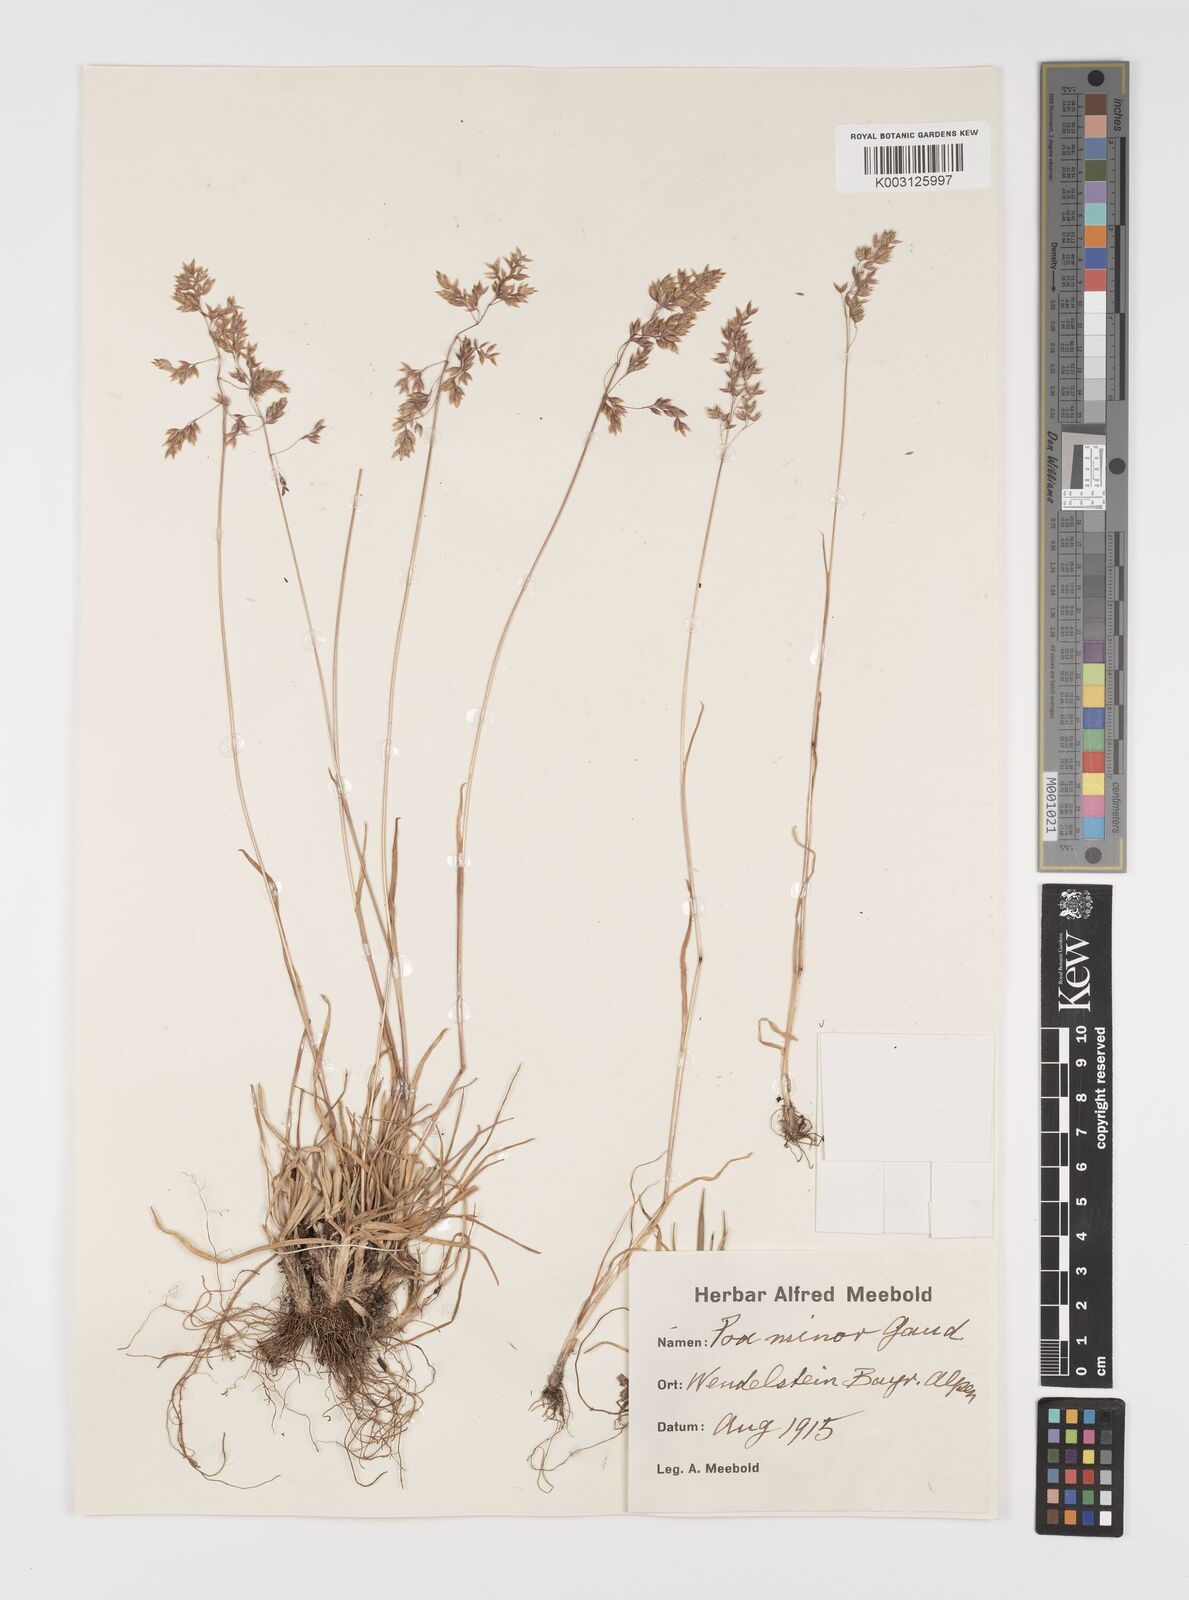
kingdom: Plantae
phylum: Tracheophyta
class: Liliopsida
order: Poales
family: Poaceae
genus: Poa
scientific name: Poa minor
